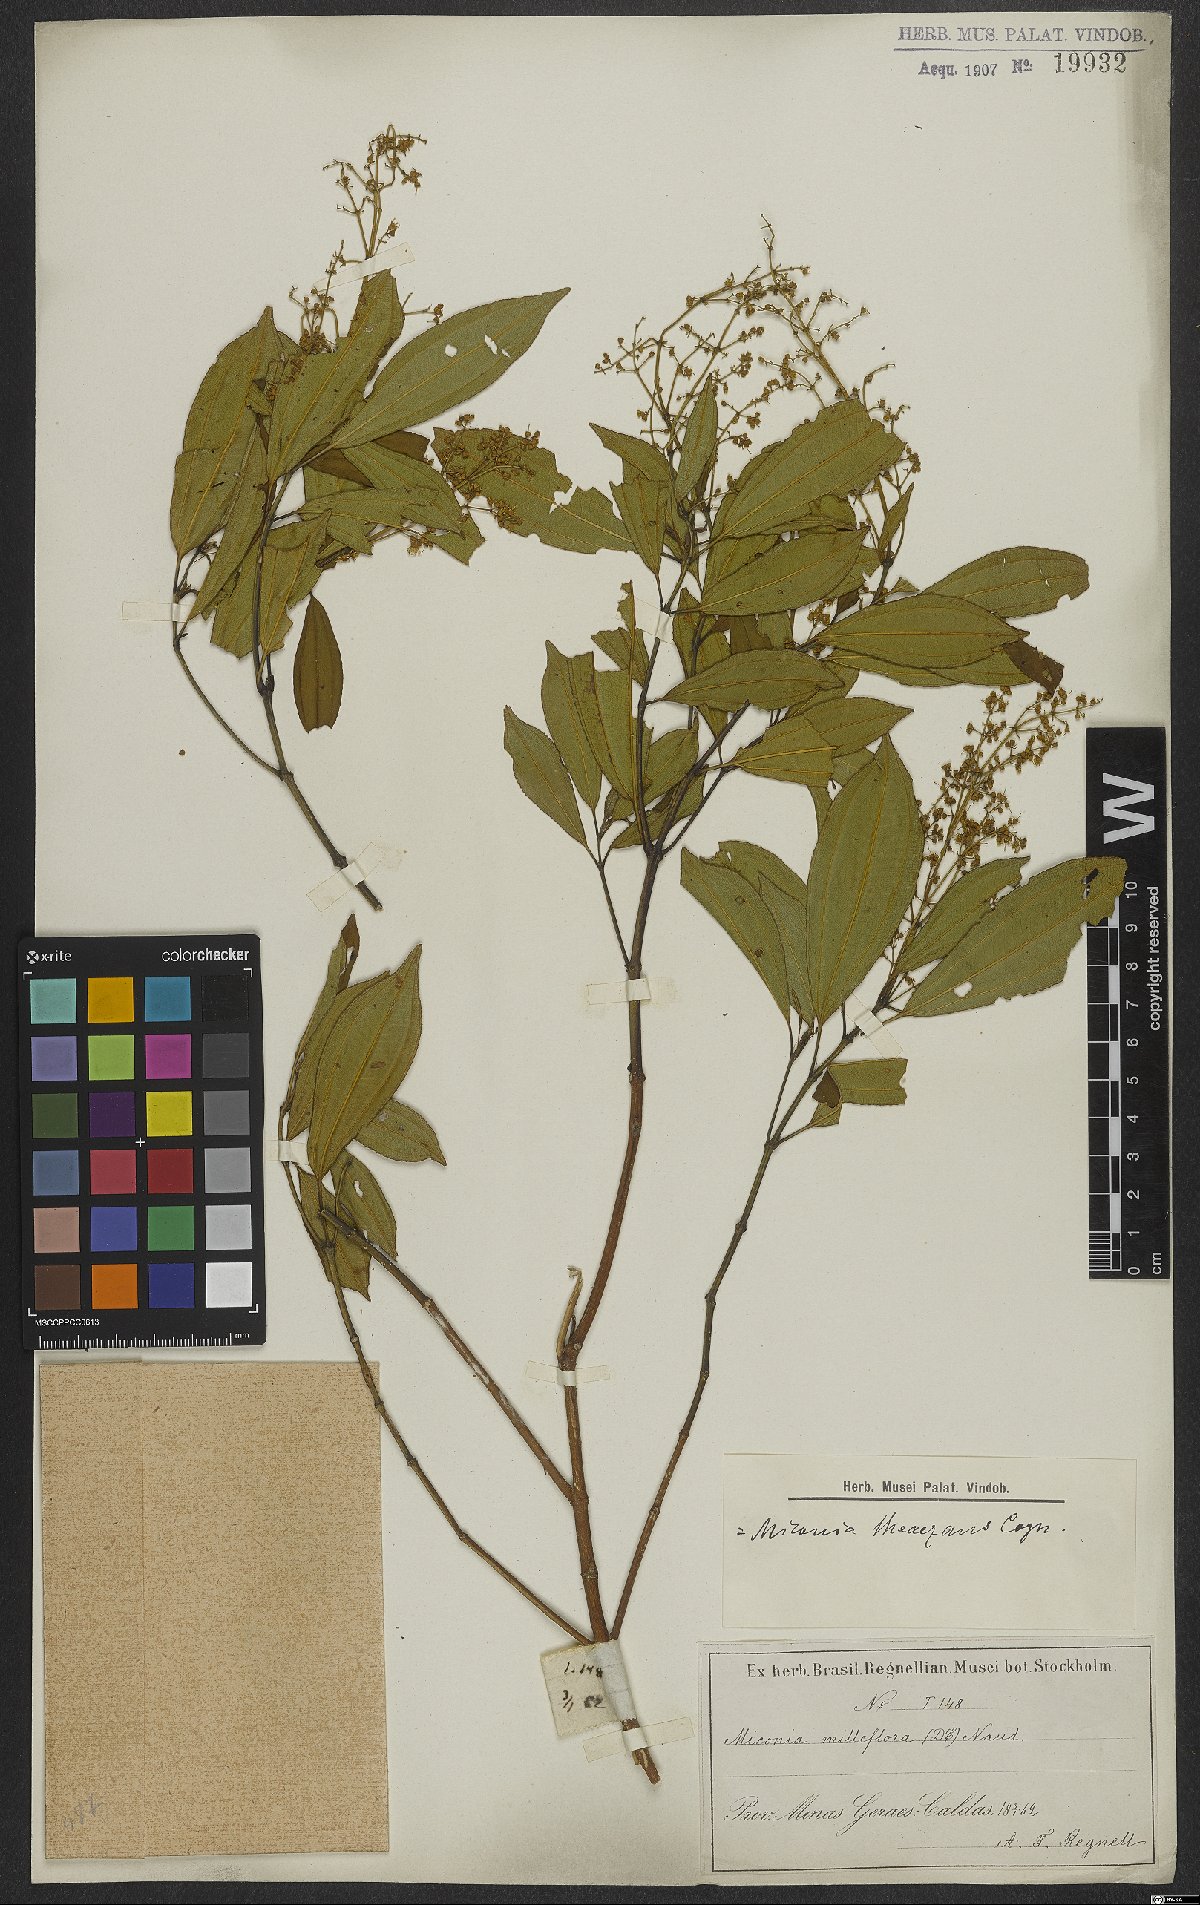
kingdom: Plantae
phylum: Tracheophyta
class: Magnoliopsida
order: Myrtales
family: Melastomataceae
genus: Miconia
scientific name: Miconia theizans
